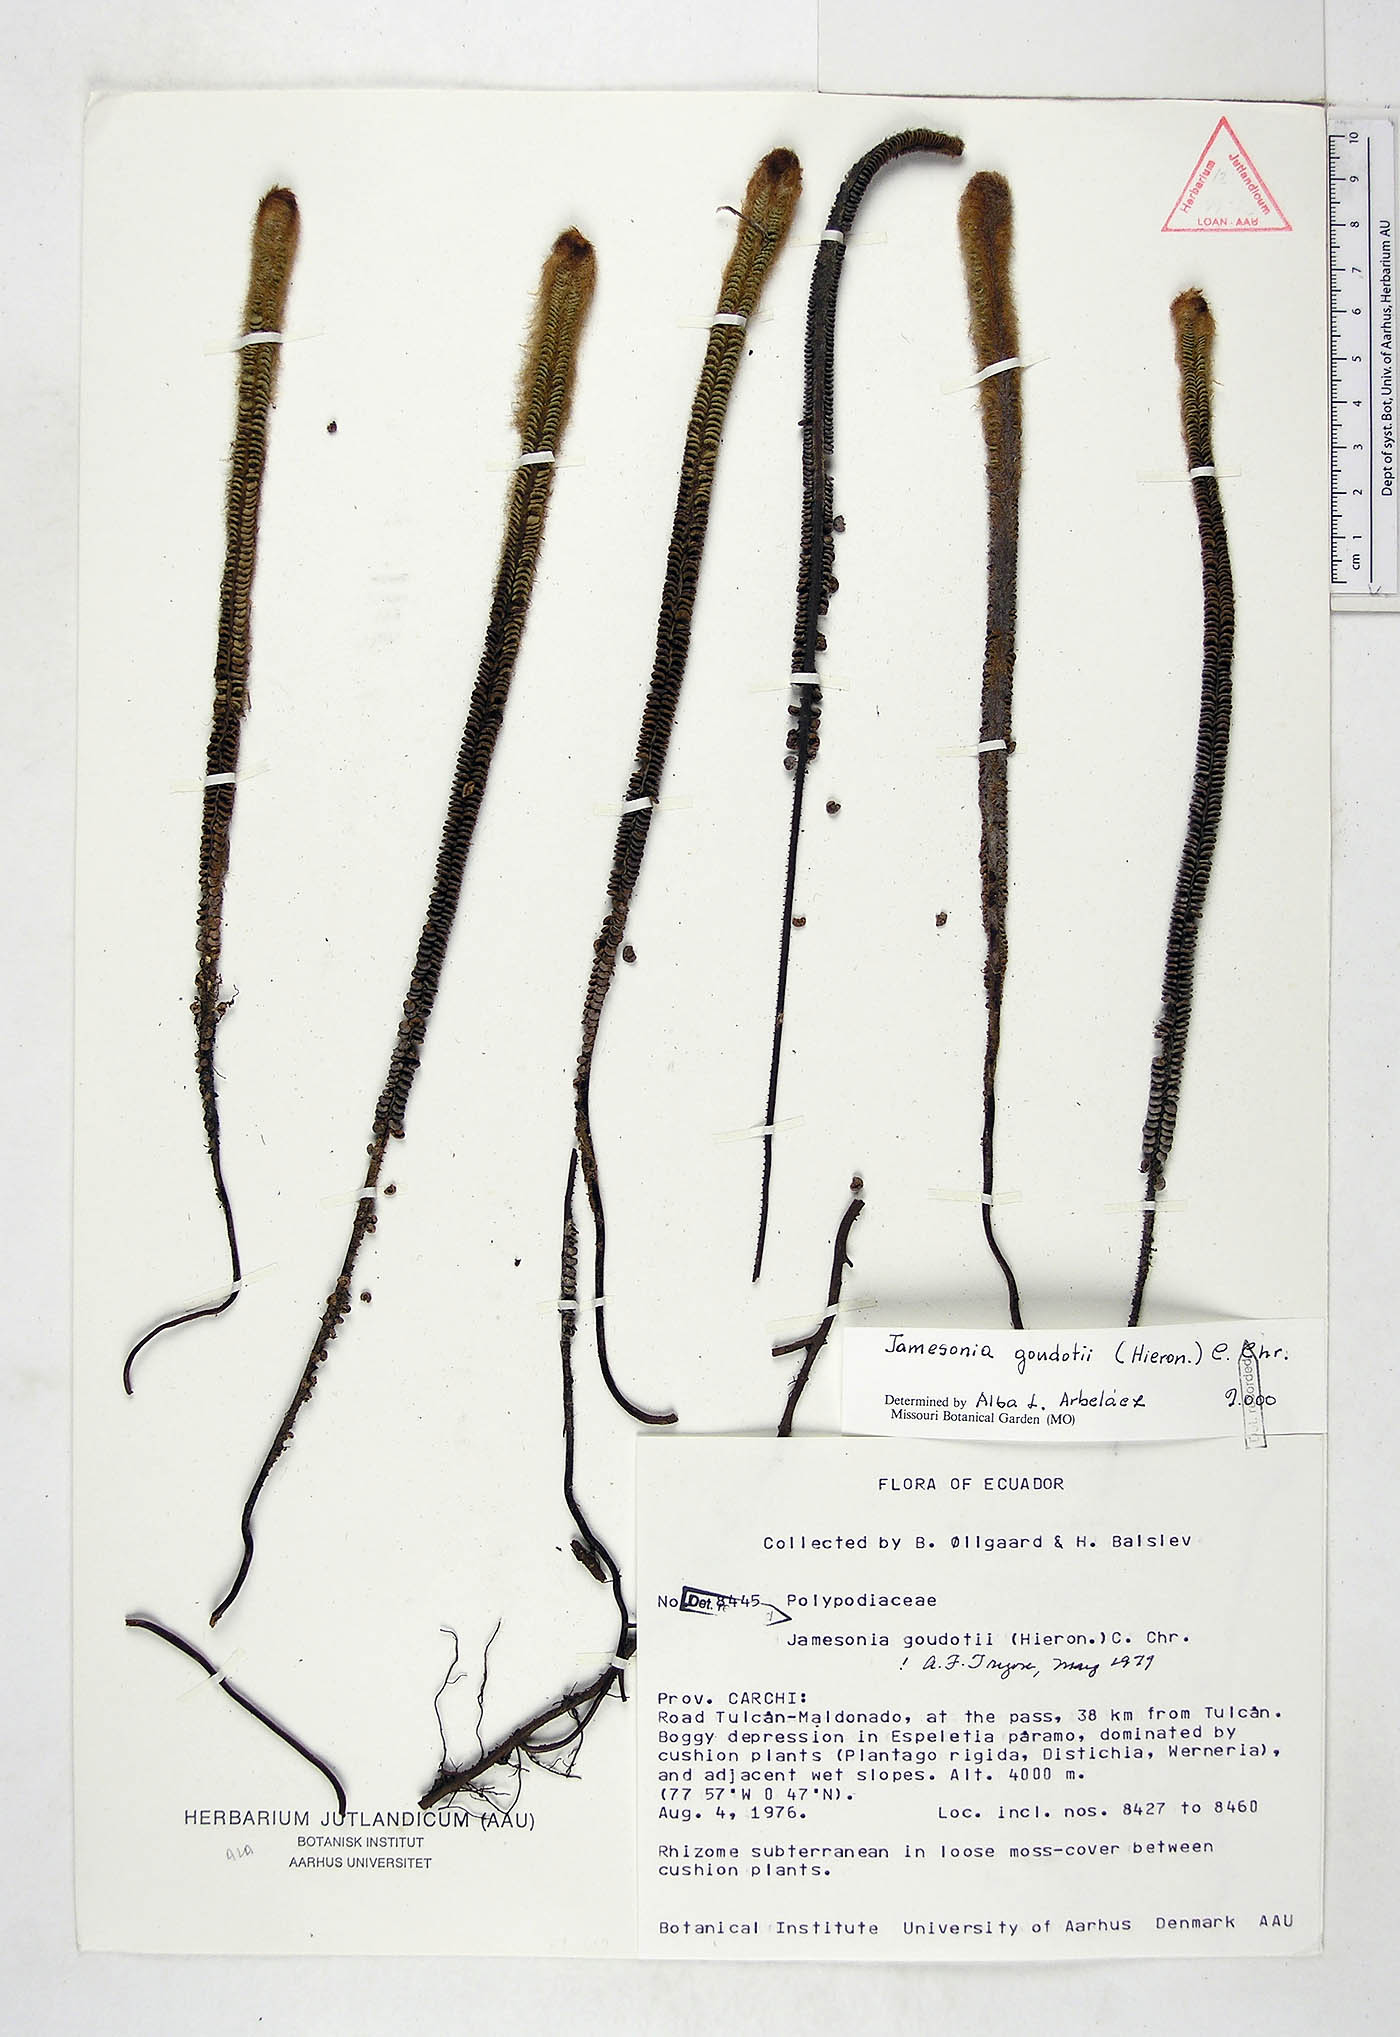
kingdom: Plantae
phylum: Tracheophyta
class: Polypodiopsida
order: Polypodiales
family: Pteridaceae
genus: Jamesonia
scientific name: Jamesonia goudotii
